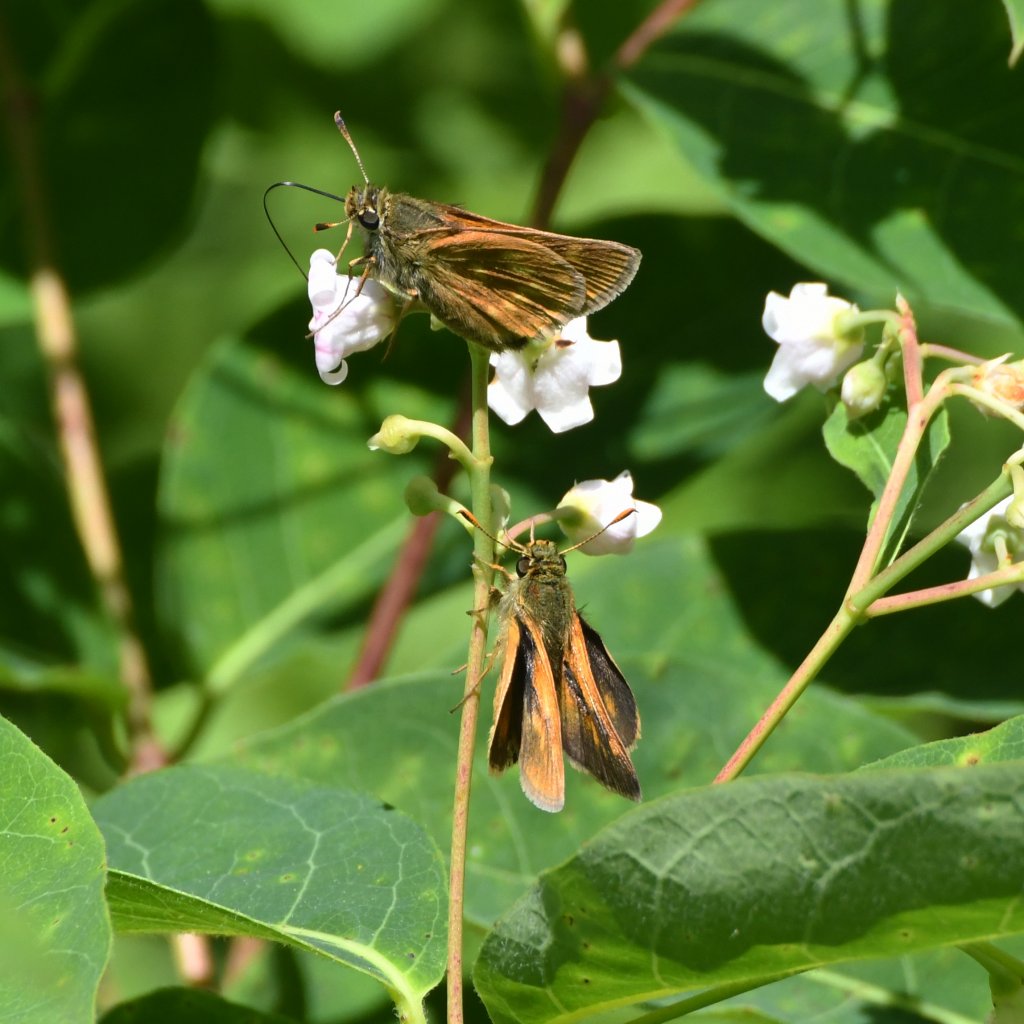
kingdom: Animalia
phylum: Arthropoda
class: Insecta
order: Lepidoptera
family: Hesperiidae
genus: Polites
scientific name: Polites
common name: Long Dash Skipper
